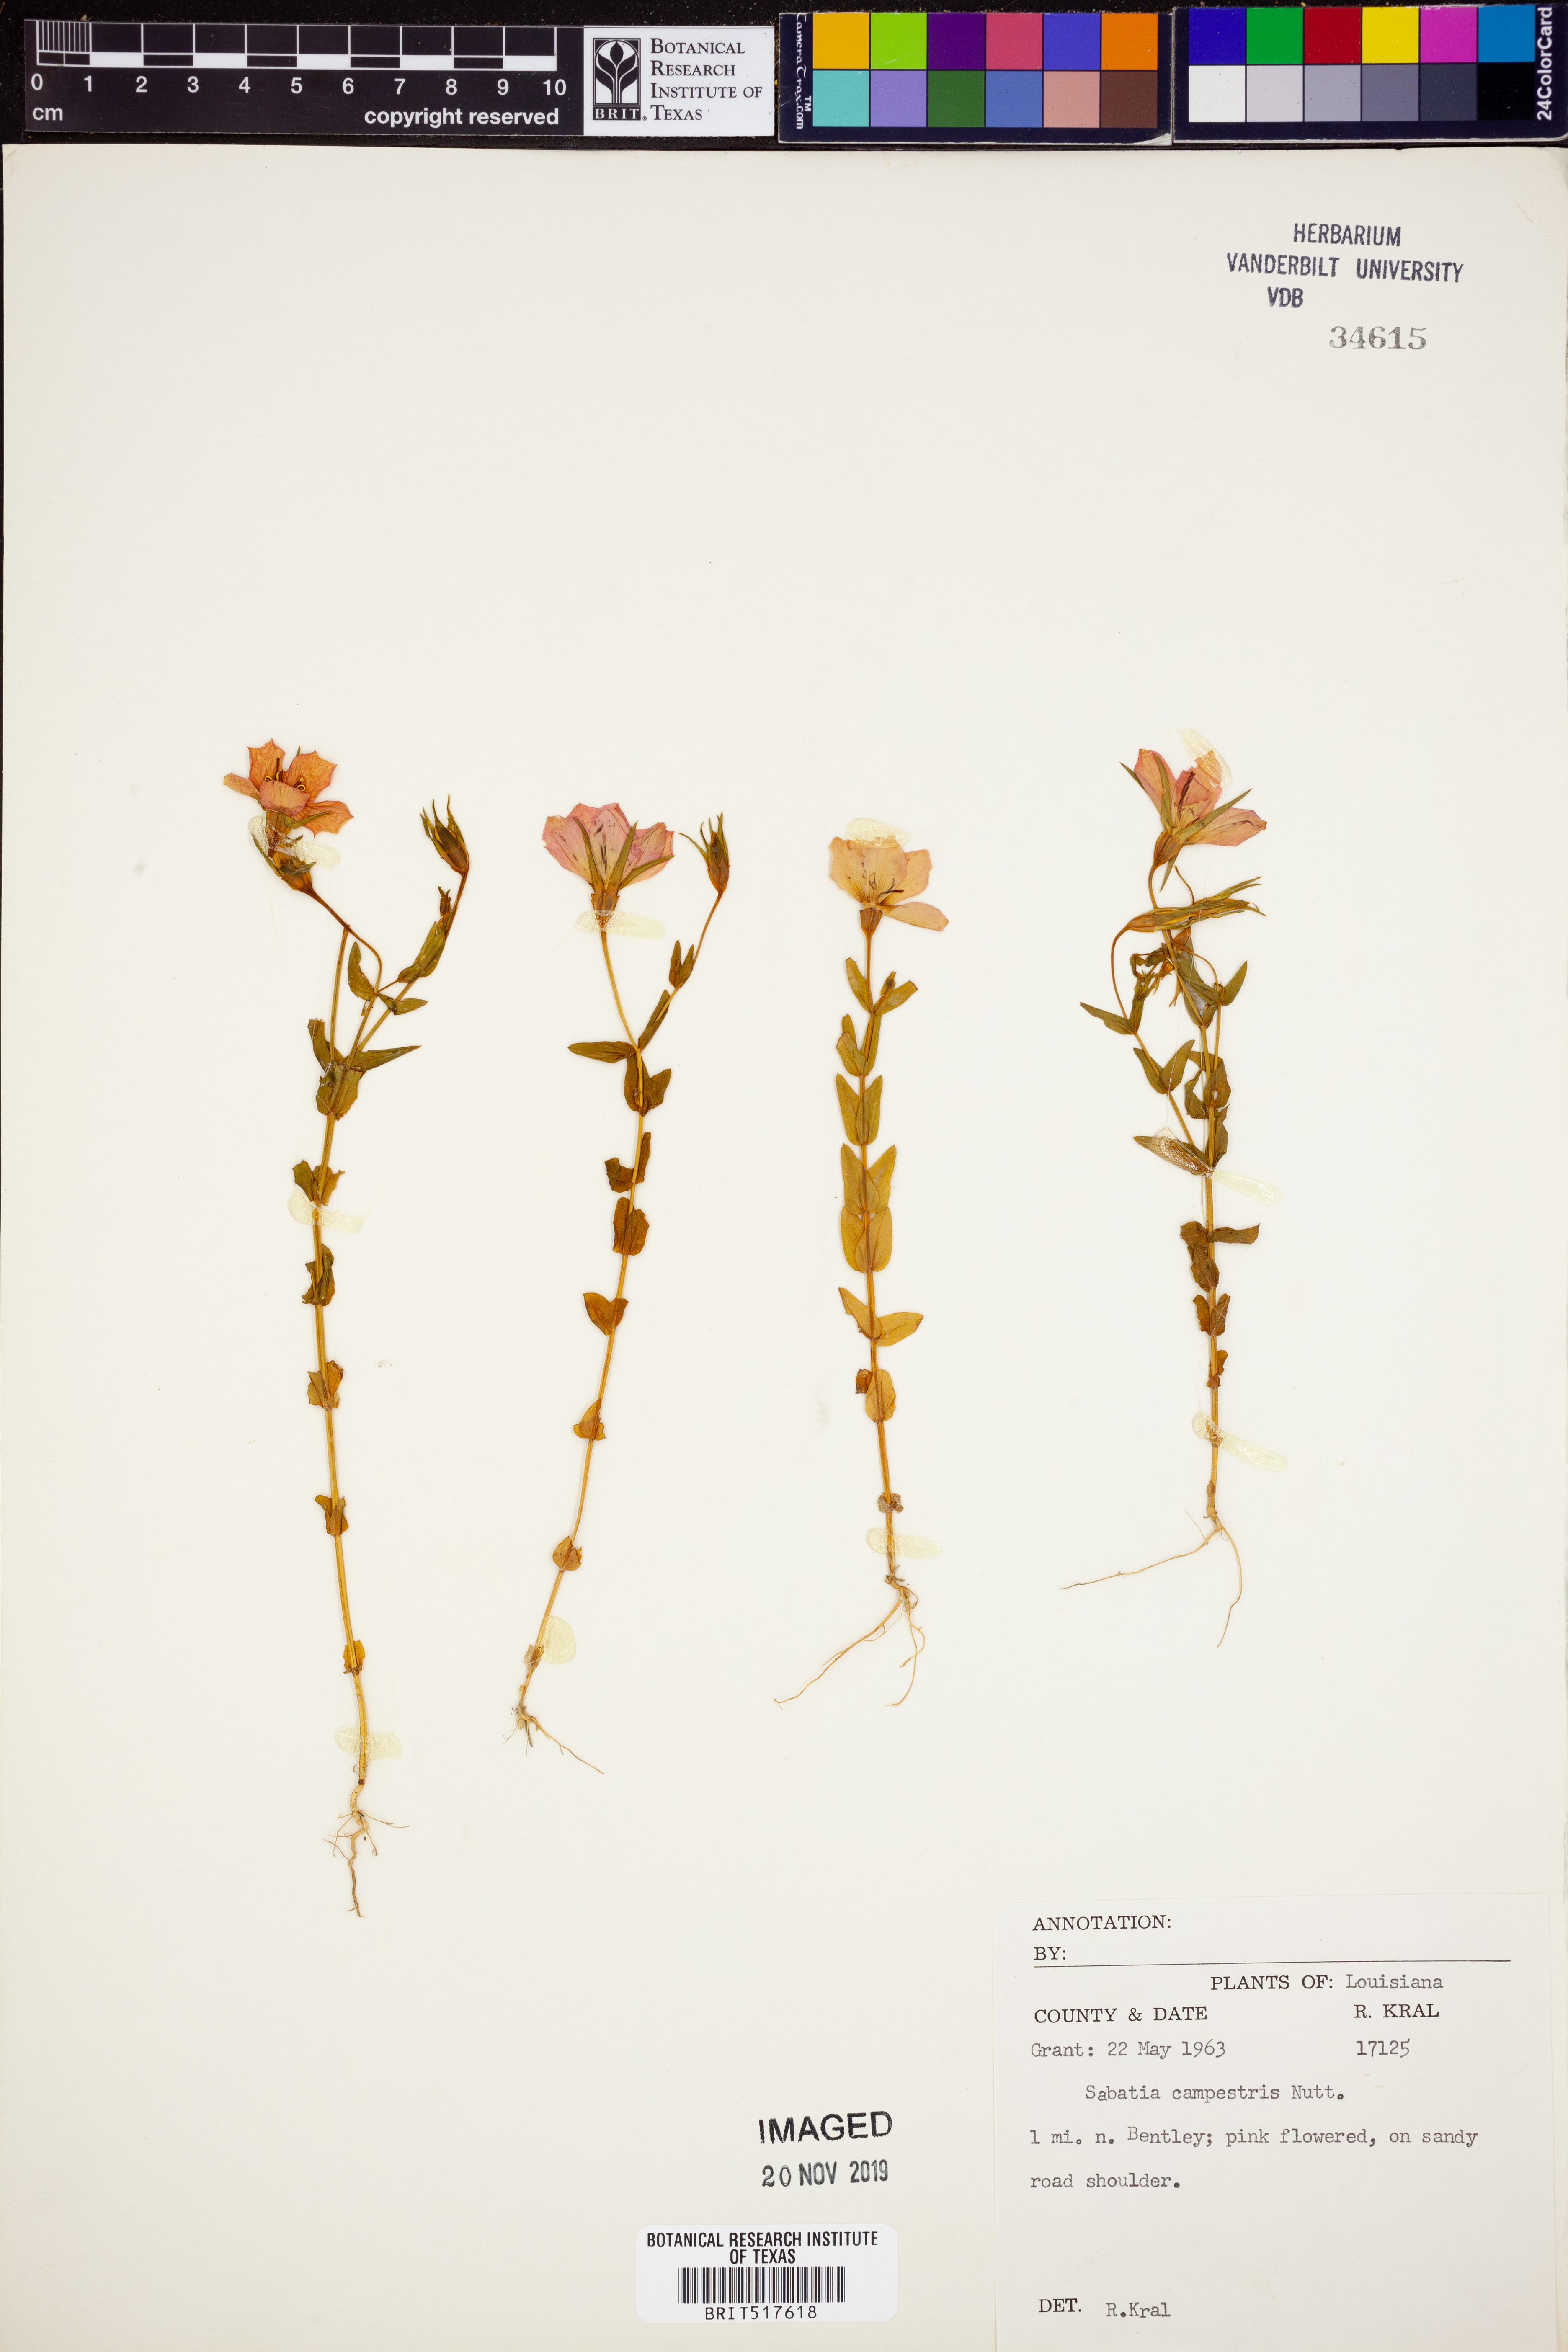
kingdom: Plantae
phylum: Tracheophyta
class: Magnoliopsida
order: Gentianales
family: Gentianaceae
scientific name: Gentianaceae
